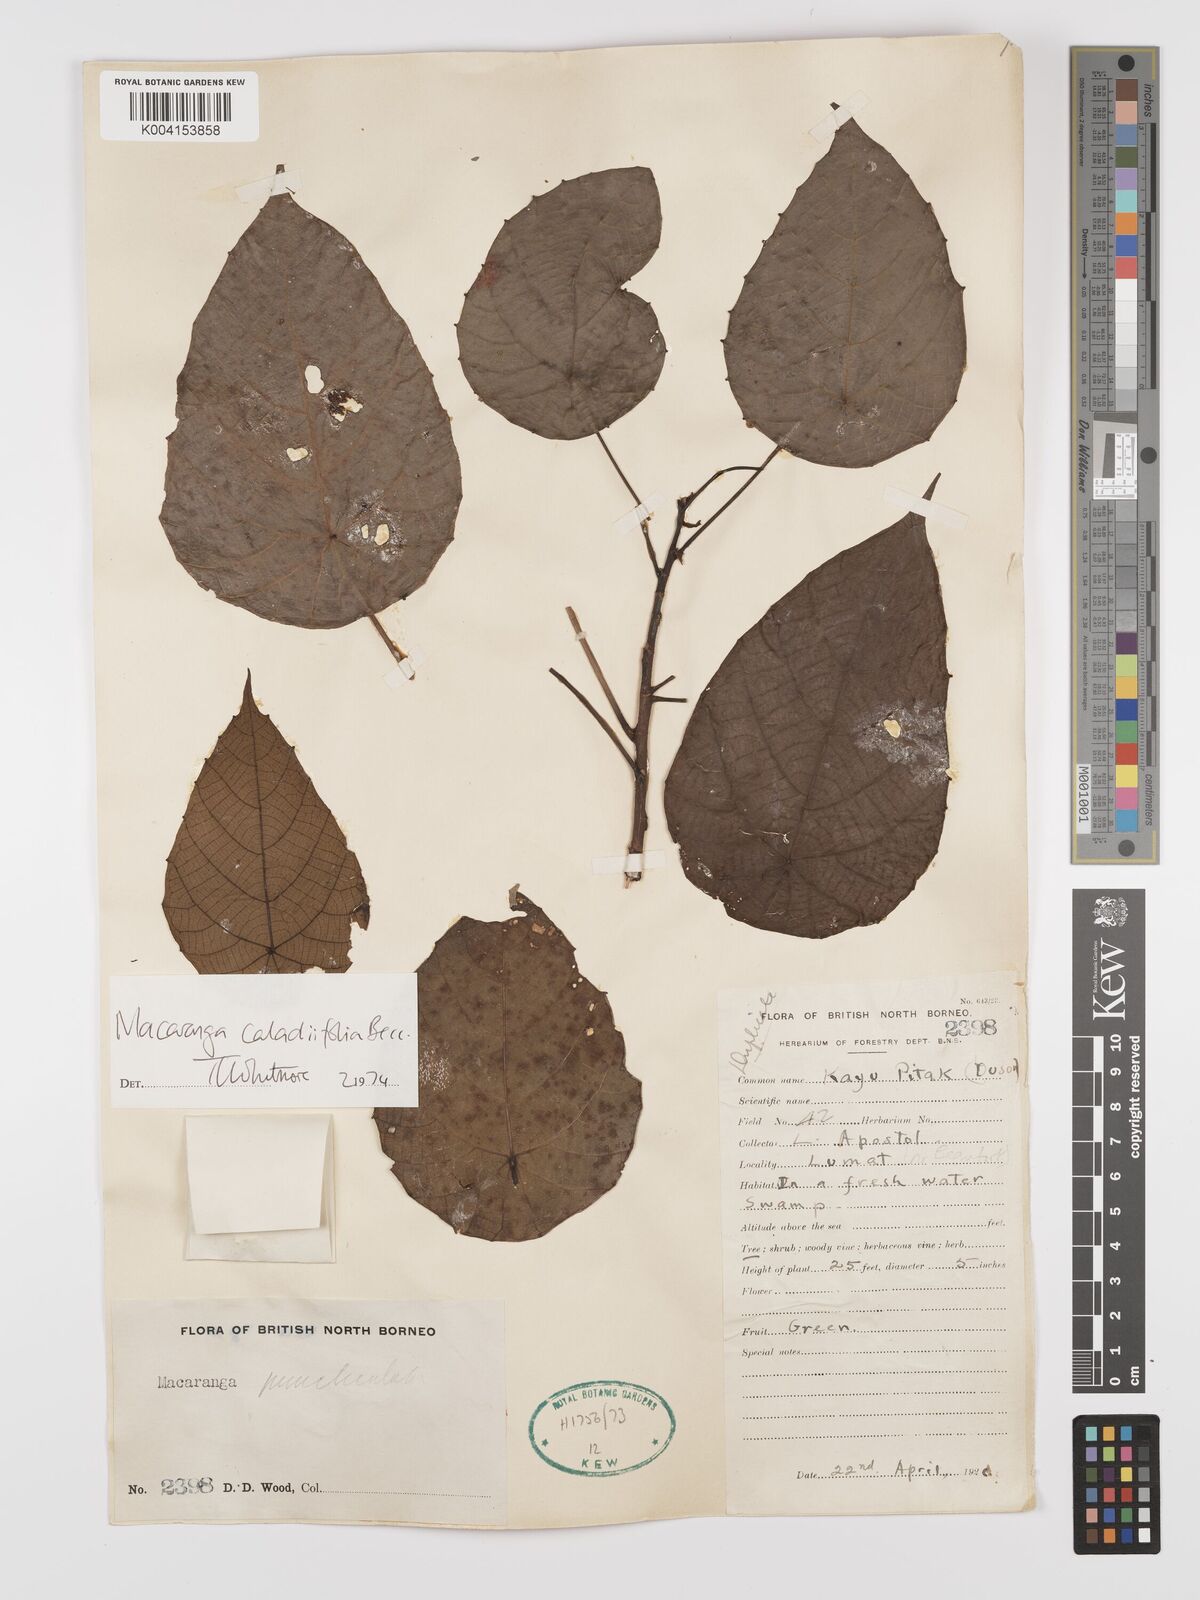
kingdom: Plantae
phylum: Tracheophyta
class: Magnoliopsida
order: Malpighiales
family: Euphorbiaceae
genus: Macaranga
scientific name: Macaranga caladiifolia
